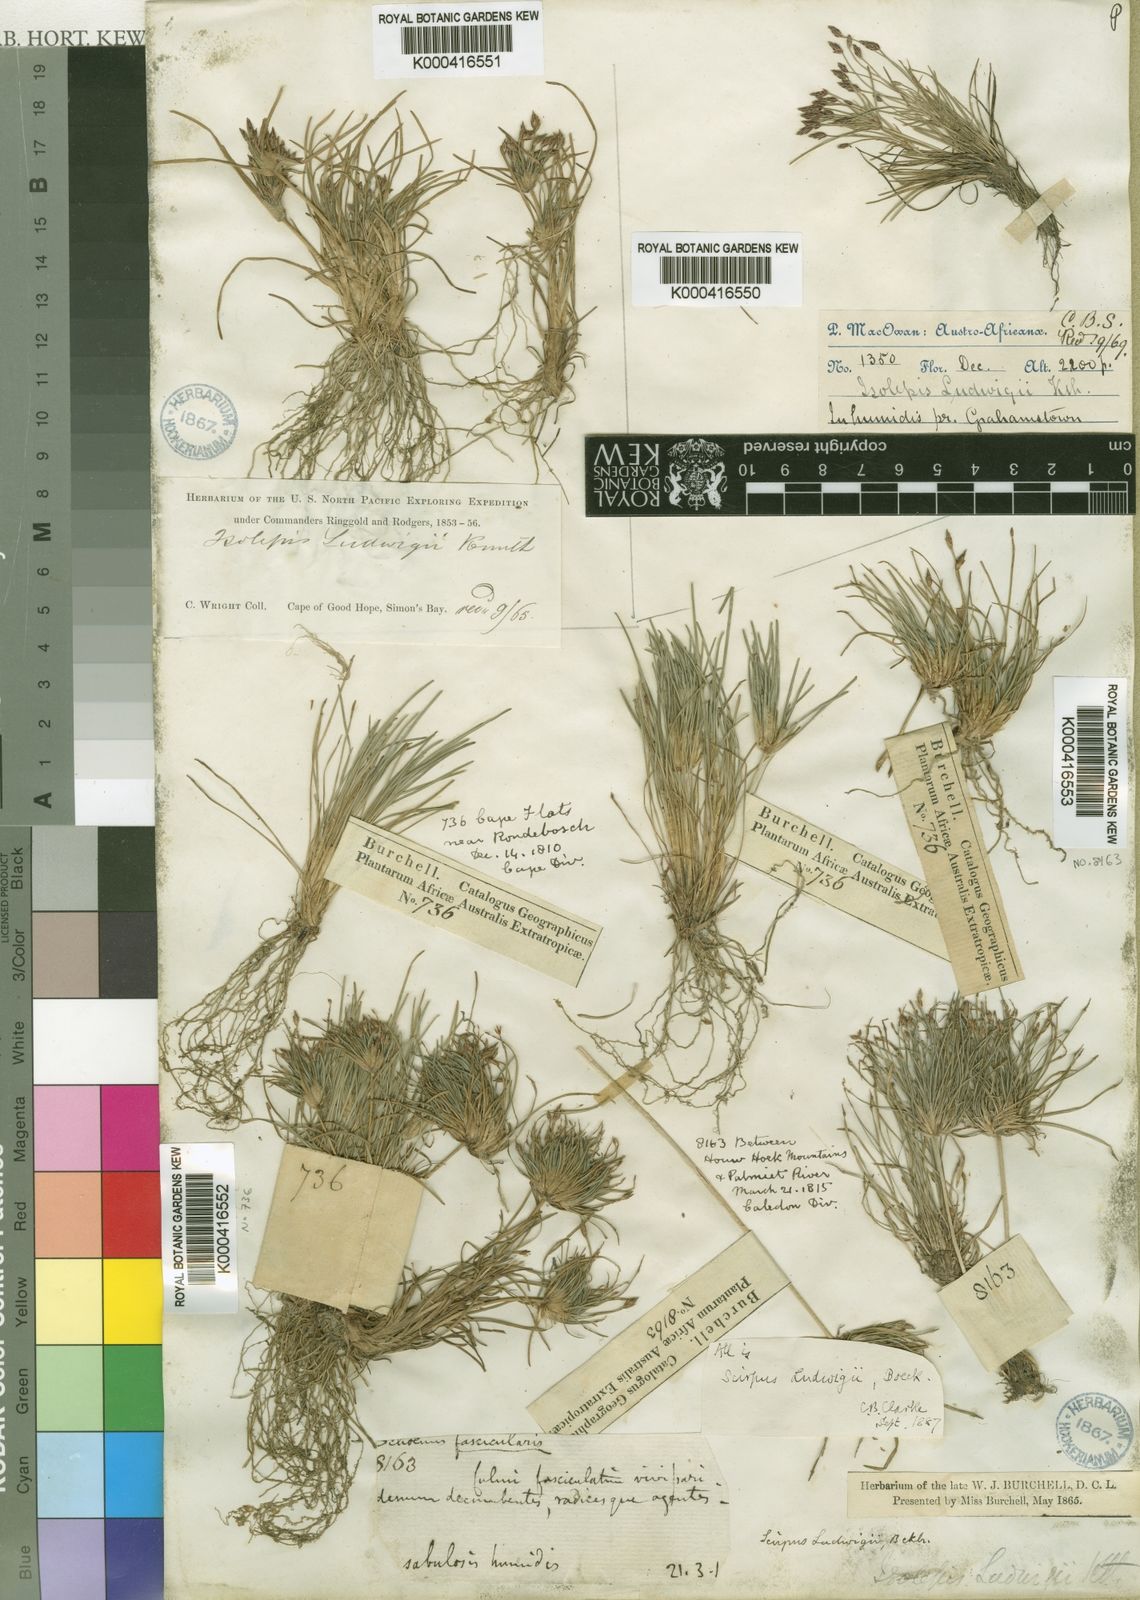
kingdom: Plantae
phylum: Tracheophyta
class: Liliopsida
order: Poales
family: Cyperaceae
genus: Isolepis
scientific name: Isolepis ludwigii
